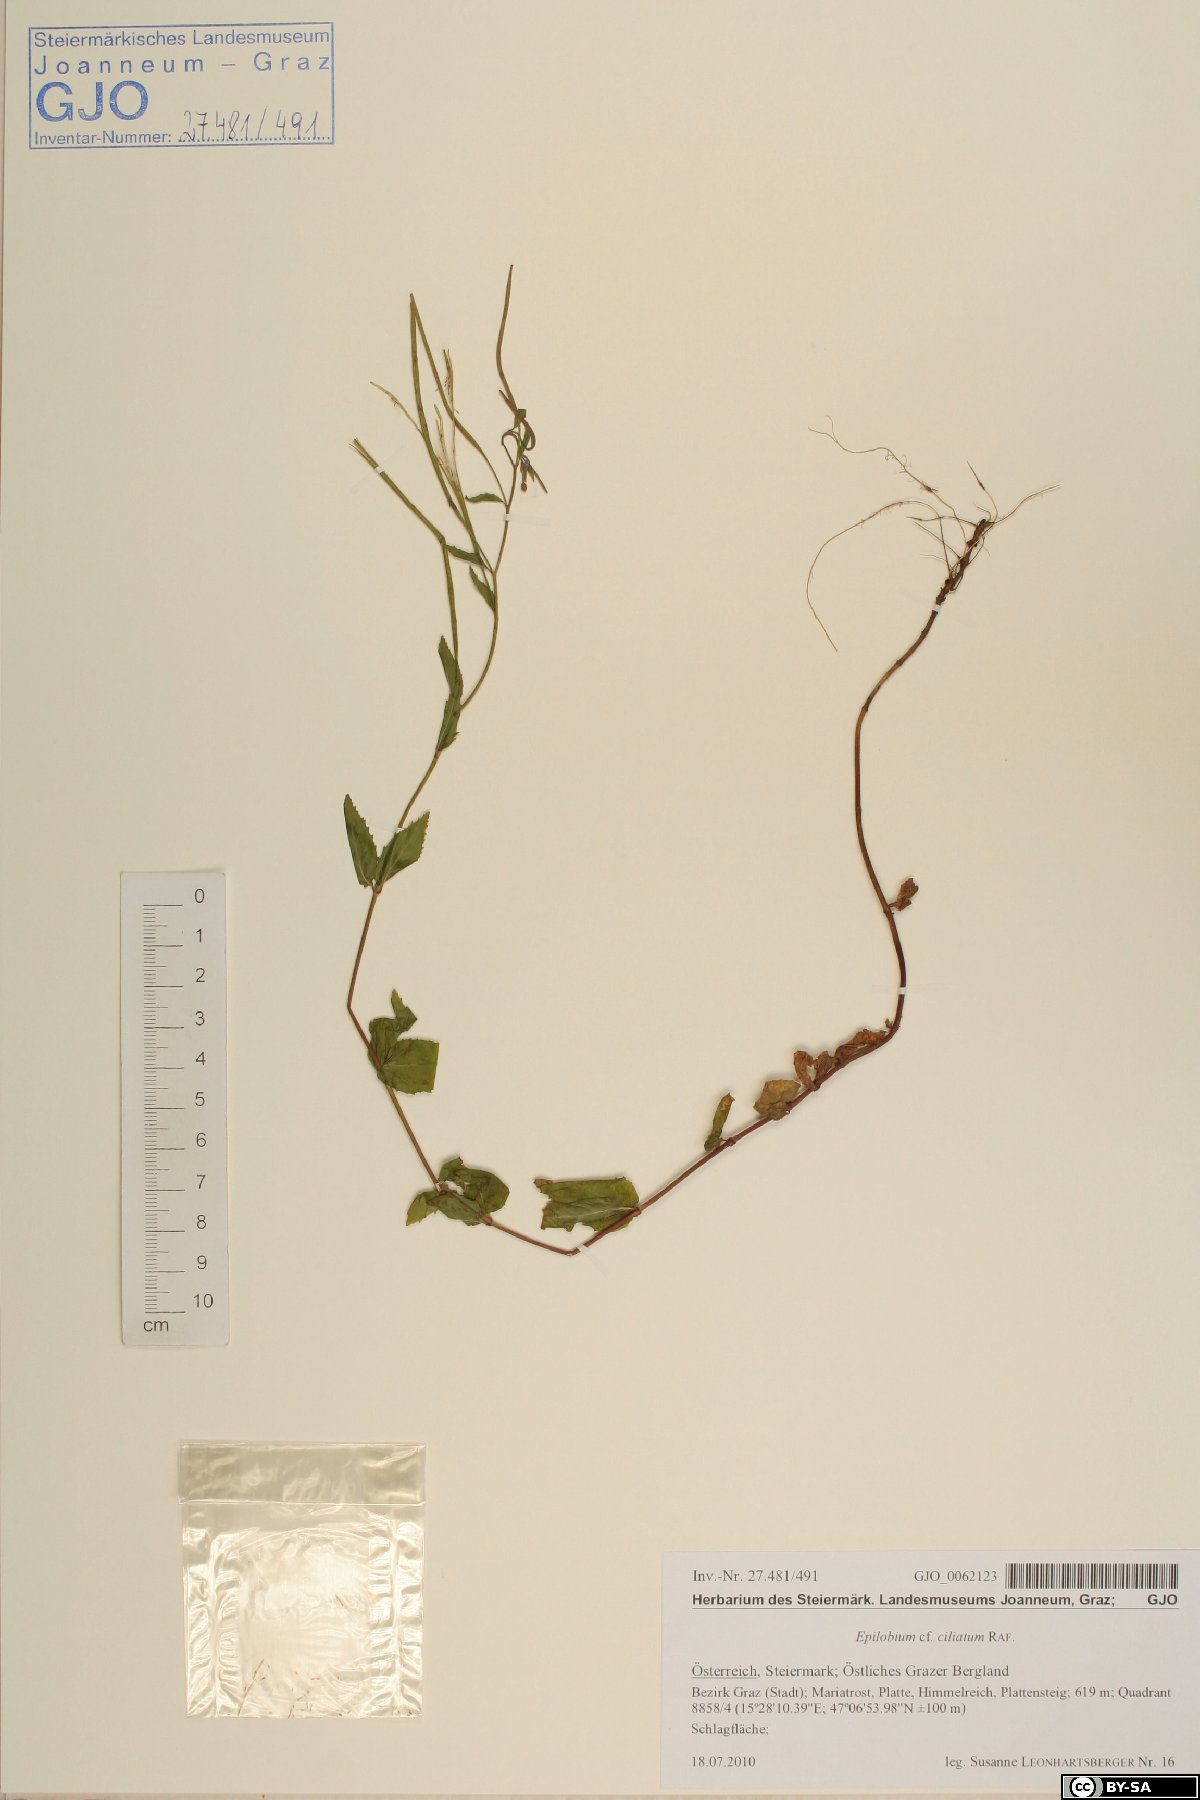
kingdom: Plantae
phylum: Tracheophyta
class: Magnoliopsida
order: Myrtales
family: Onagraceae
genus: Epilobium
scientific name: Epilobium ciliatum
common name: American willowherb
